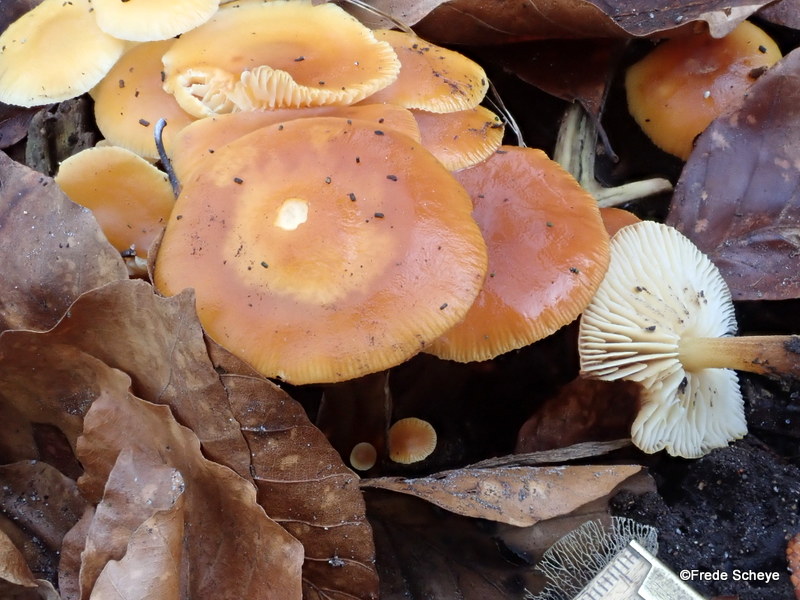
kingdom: Fungi
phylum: Basidiomycota
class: Agaricomycetes
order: Agaricales
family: Physalacriaceae
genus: Flammulina
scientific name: Flammulina velutipes
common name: gul fløjlsfod
